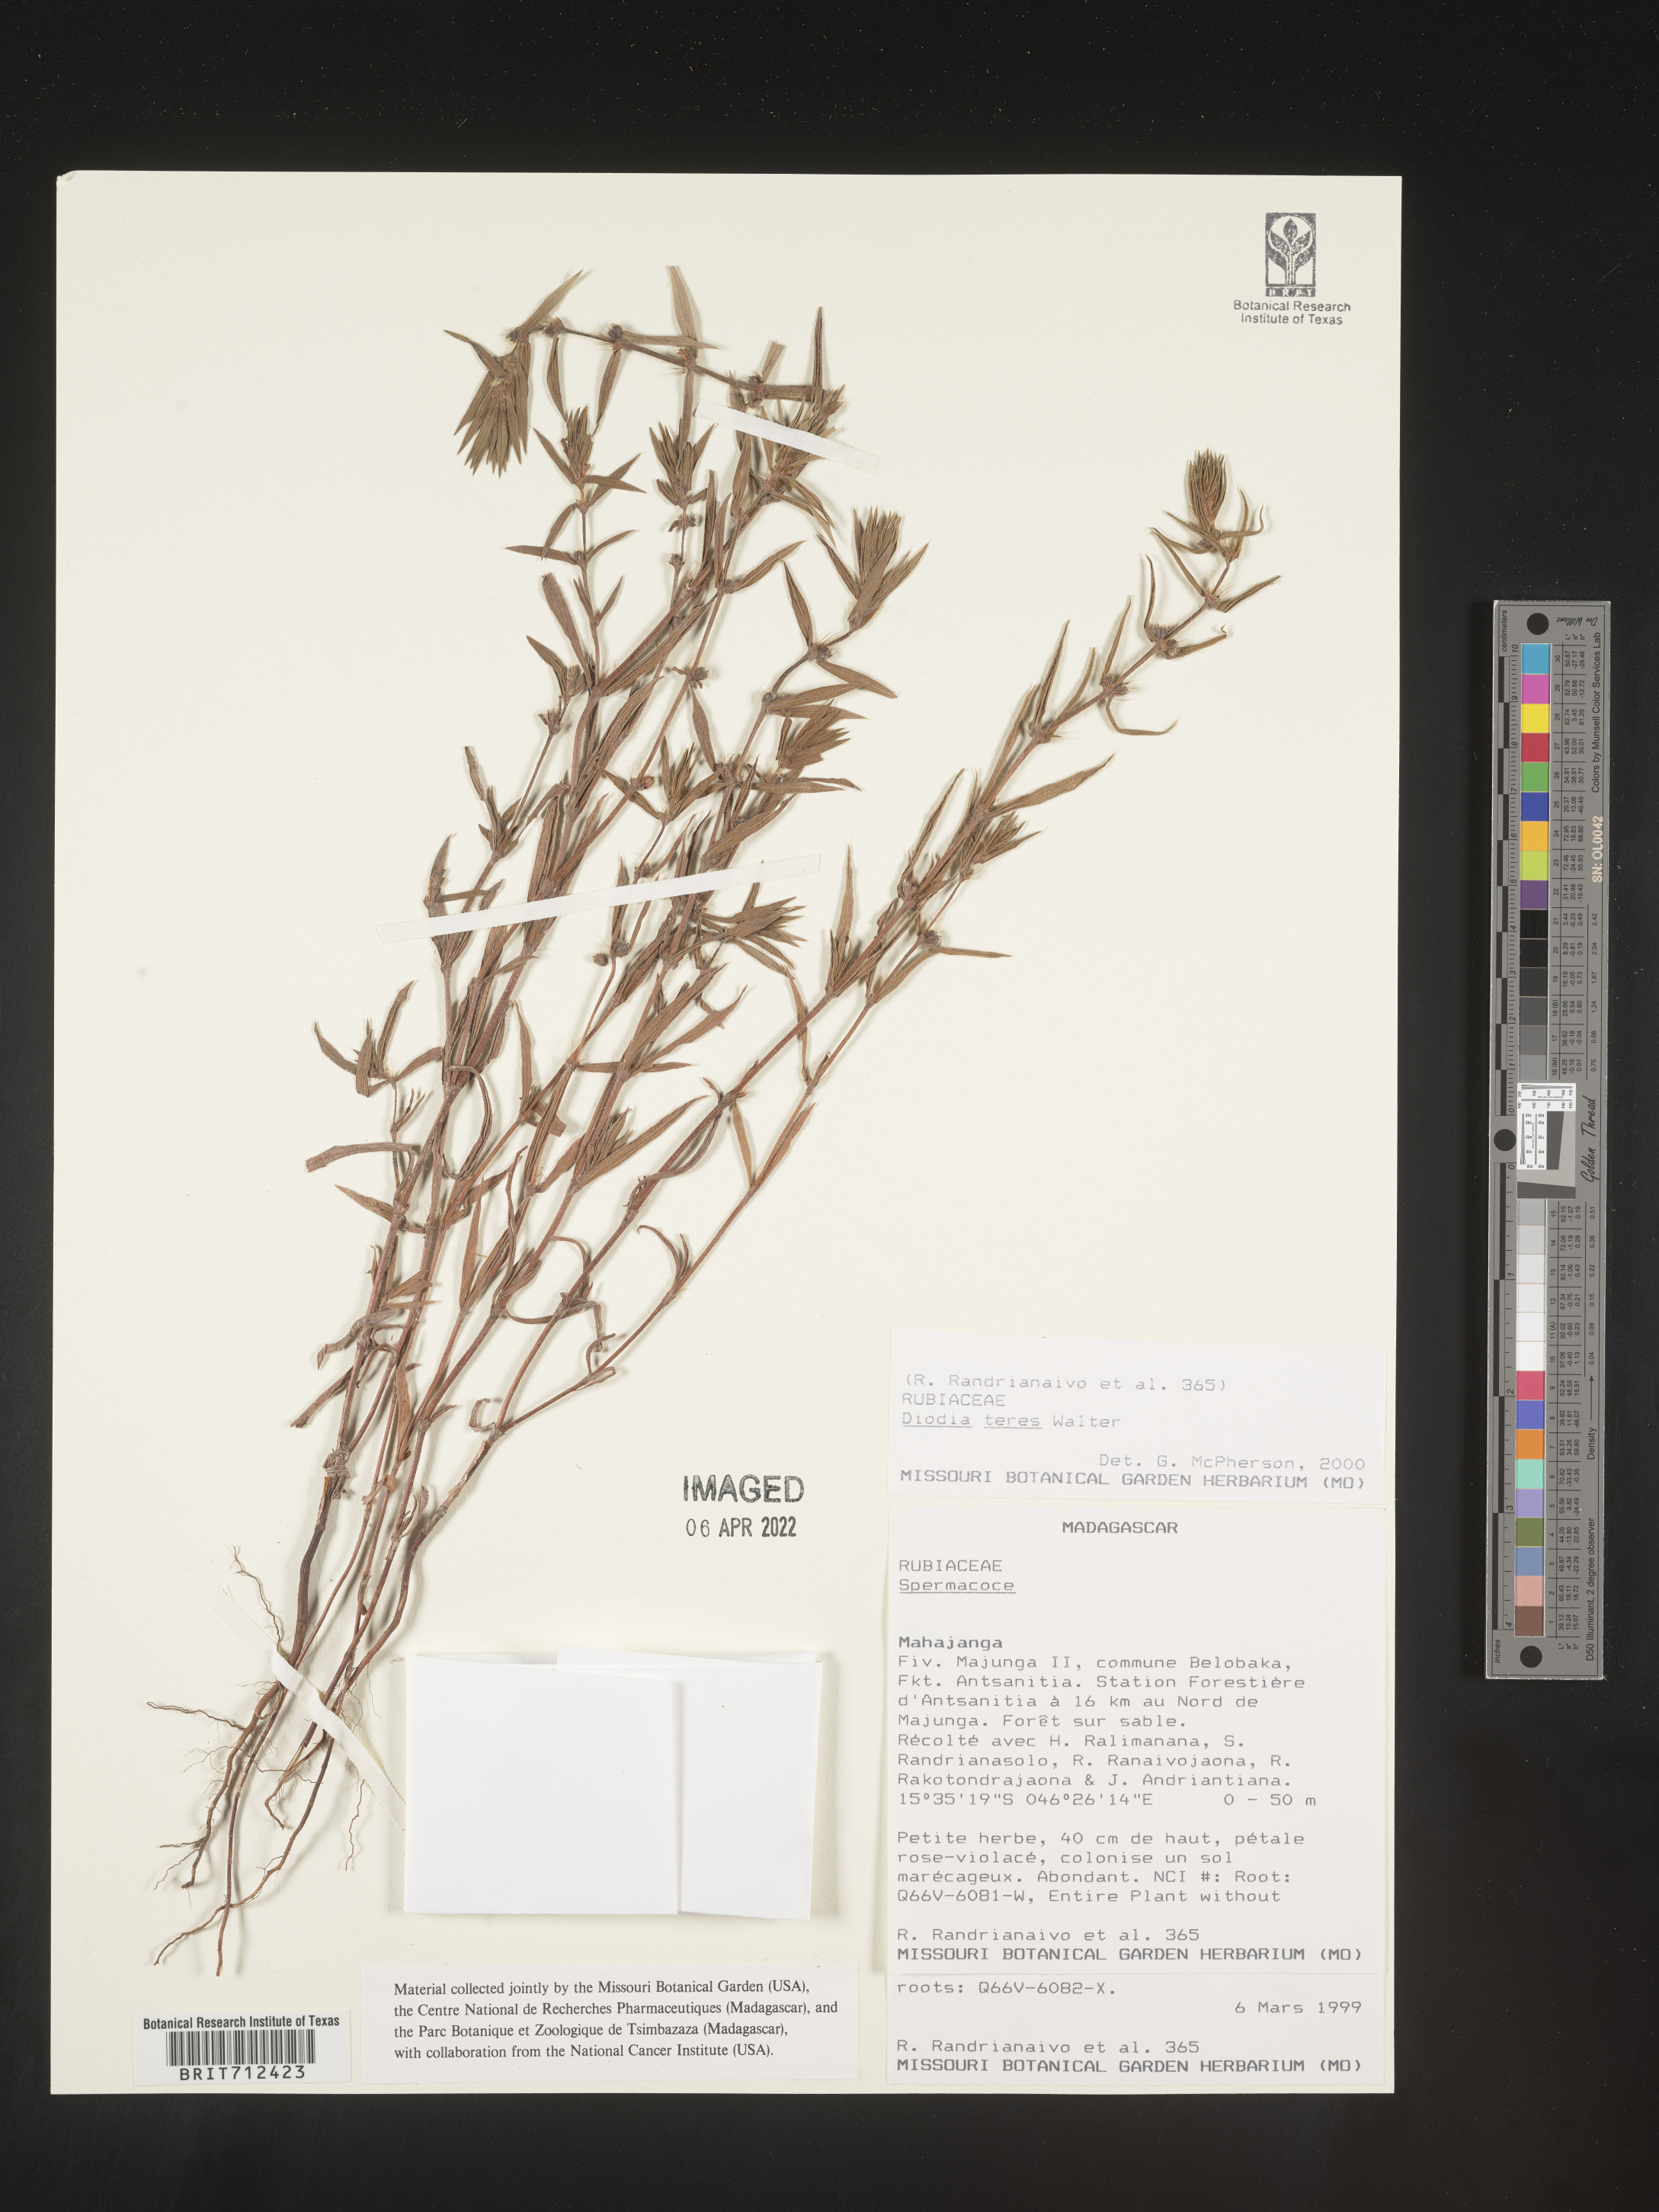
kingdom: Plantae
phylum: Tracheophyta
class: Magnoliopsida
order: Gentianales
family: Rubiaceae
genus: Diodia
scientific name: Diodia
